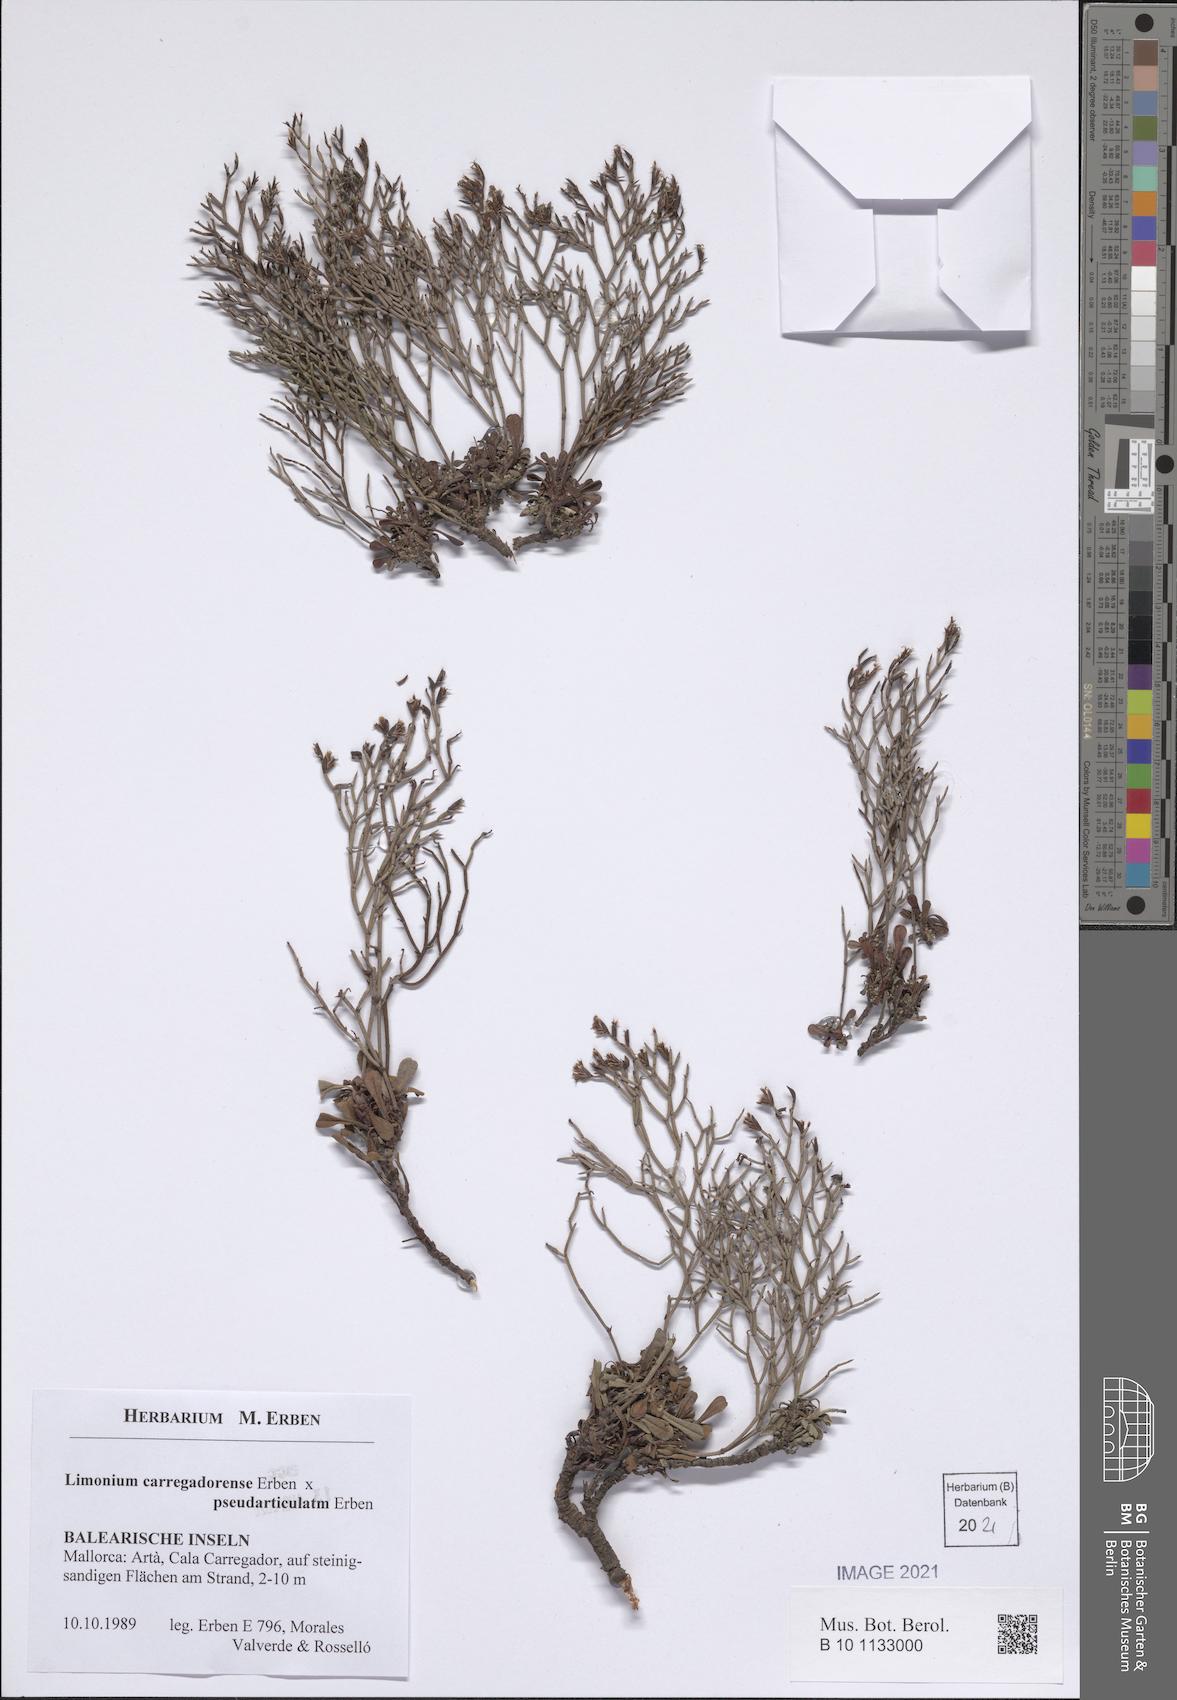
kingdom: Plantae
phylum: Tracheophyta
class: Magnoliopsida
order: Caryophyllales
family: Plumbaginaceae
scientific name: Plumbaginaceae
